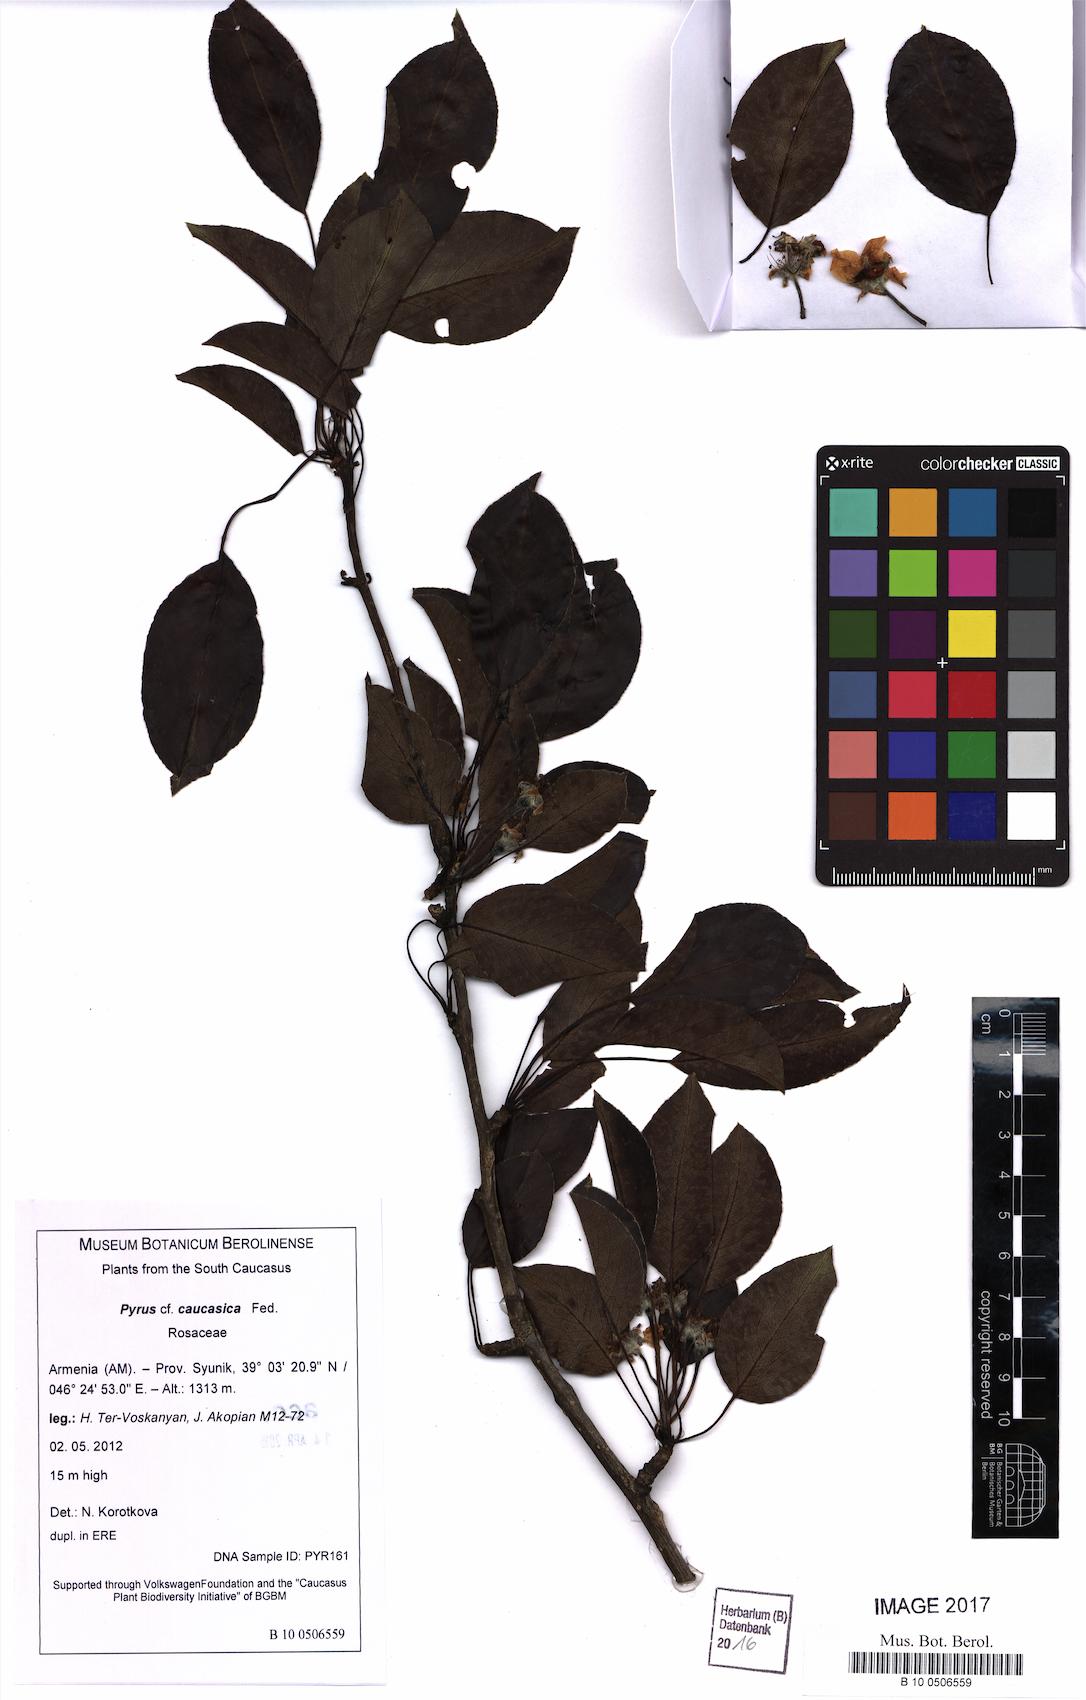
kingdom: Plantae
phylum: Tracheophyta
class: Magnoliopsida
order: Rosales
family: Rosaceae
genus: Pyrus
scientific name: Pyrus communis
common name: Pear
